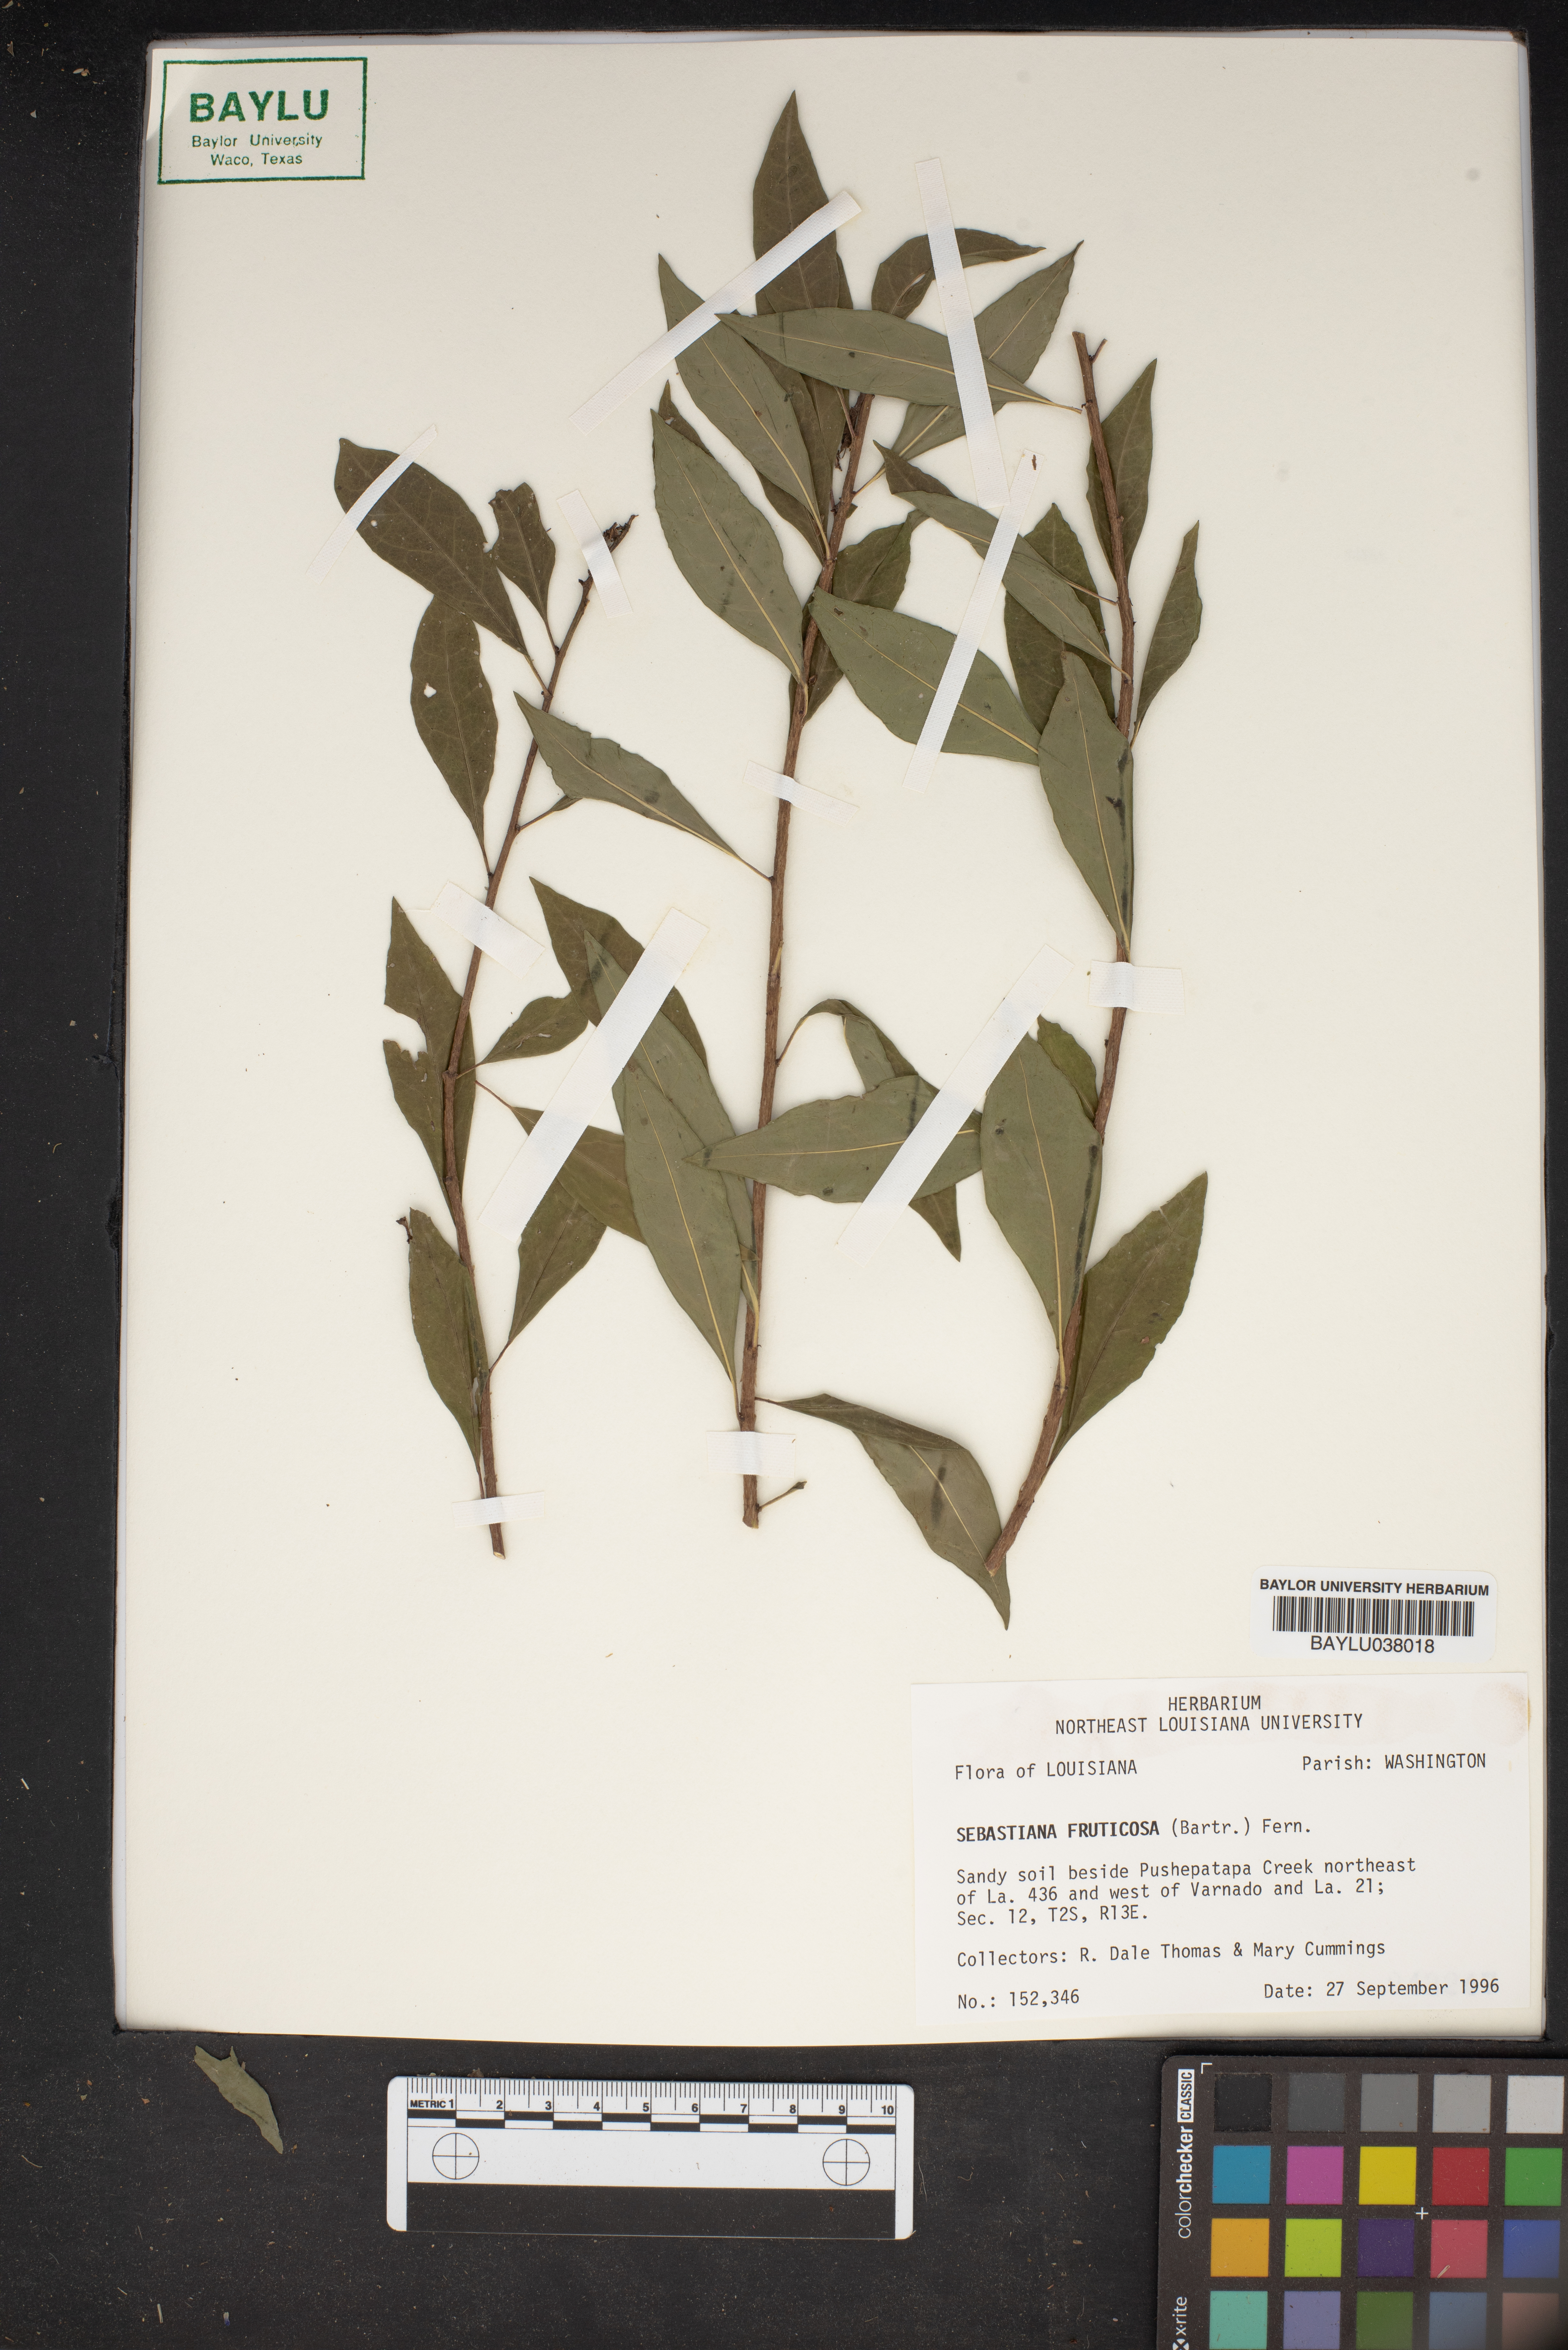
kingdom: Plantae
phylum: Tracheophyta
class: Magnoliopsida
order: Malpighiales
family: Euphorbiaceae
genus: Ditrysinia
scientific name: Ditrysinia fruticosa
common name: Gulf sebastian-bush
